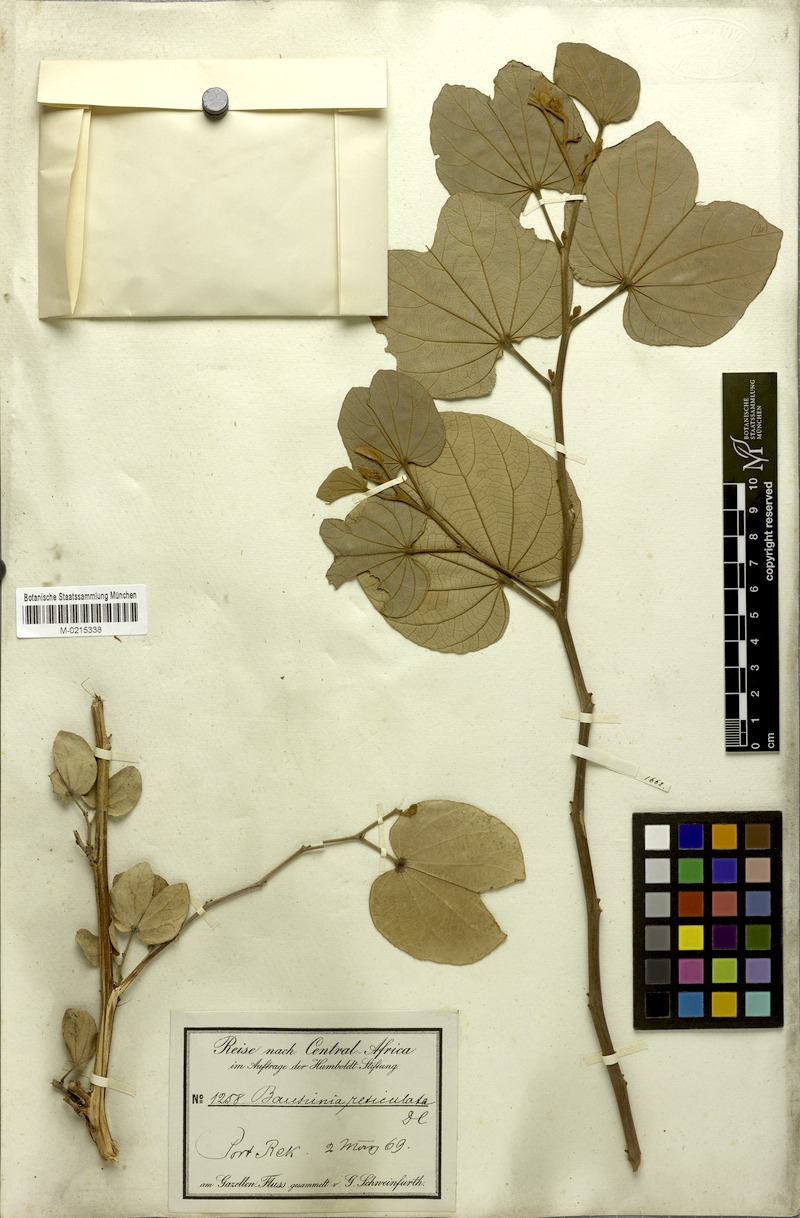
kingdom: Plantae
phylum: Tracheophyta
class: Magnoliopsida
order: Fabales
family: Fabaceae
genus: Piliostigma
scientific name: Piliostigma reticulatum
